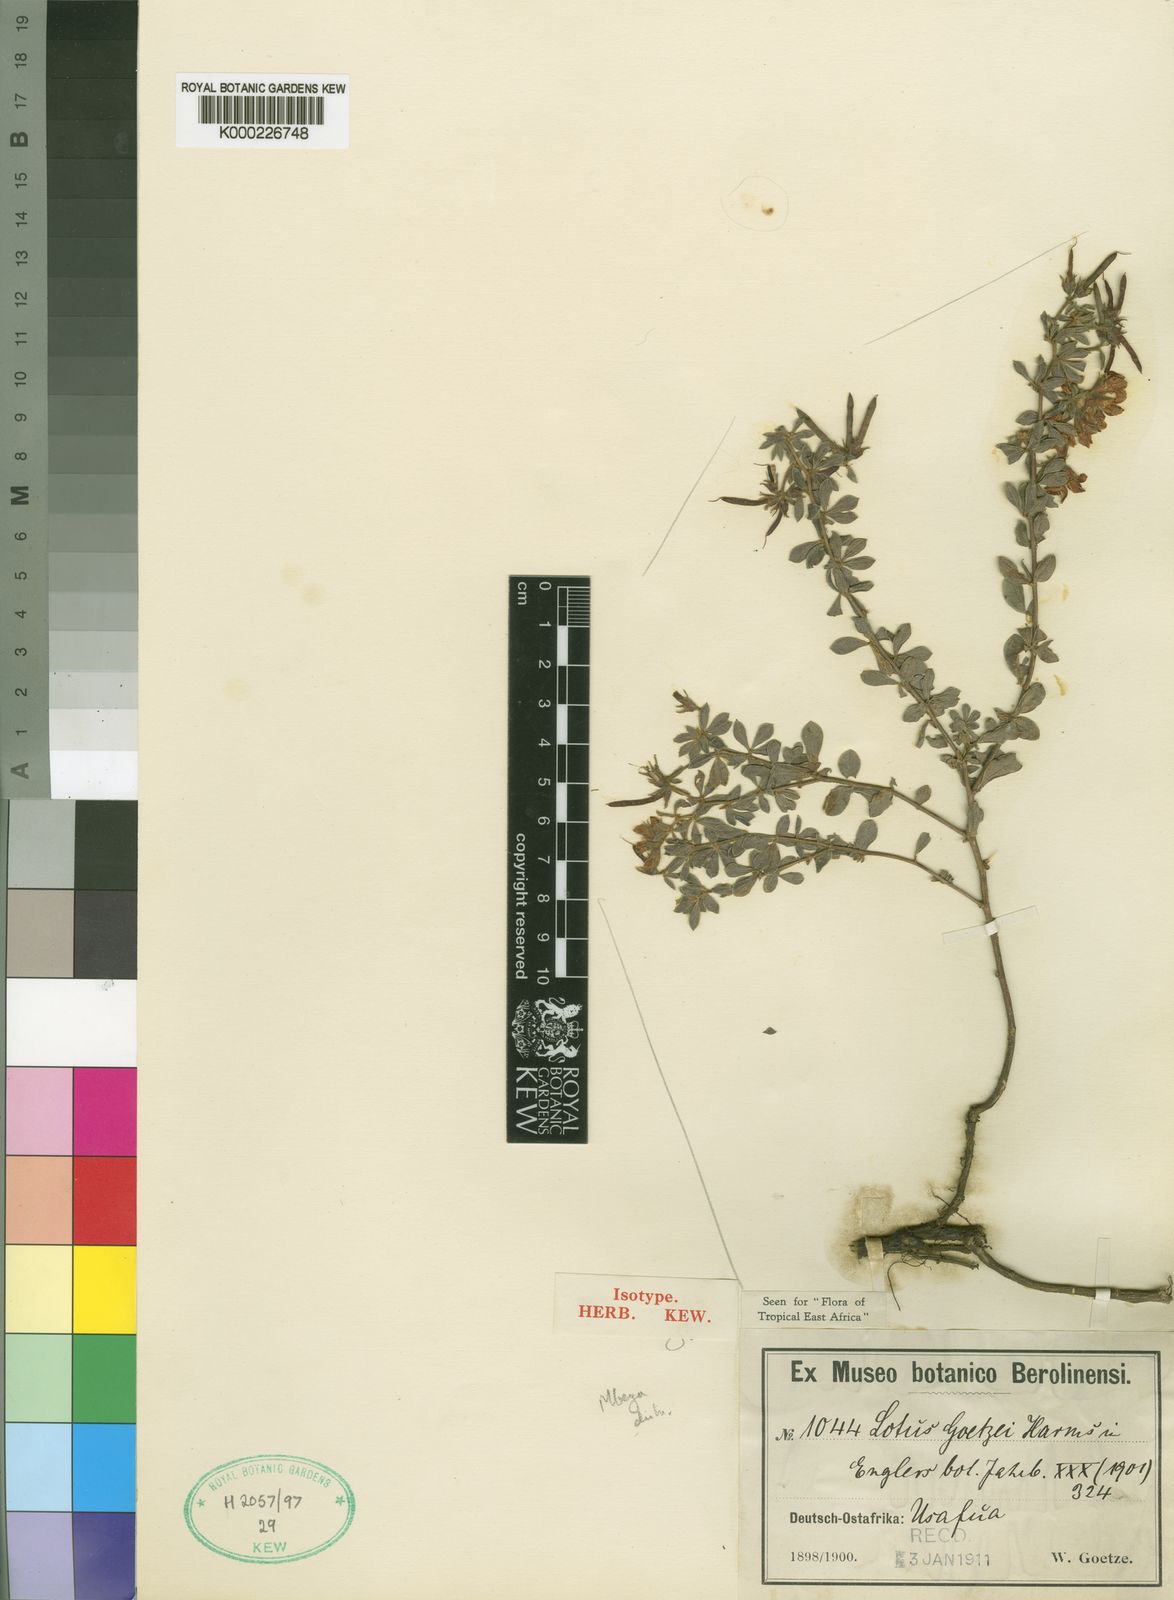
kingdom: Plantae
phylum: Tracheophyta
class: Magnoliopsida
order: Fabales
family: Fabaceae
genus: Lotus
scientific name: Lotus goetzei
